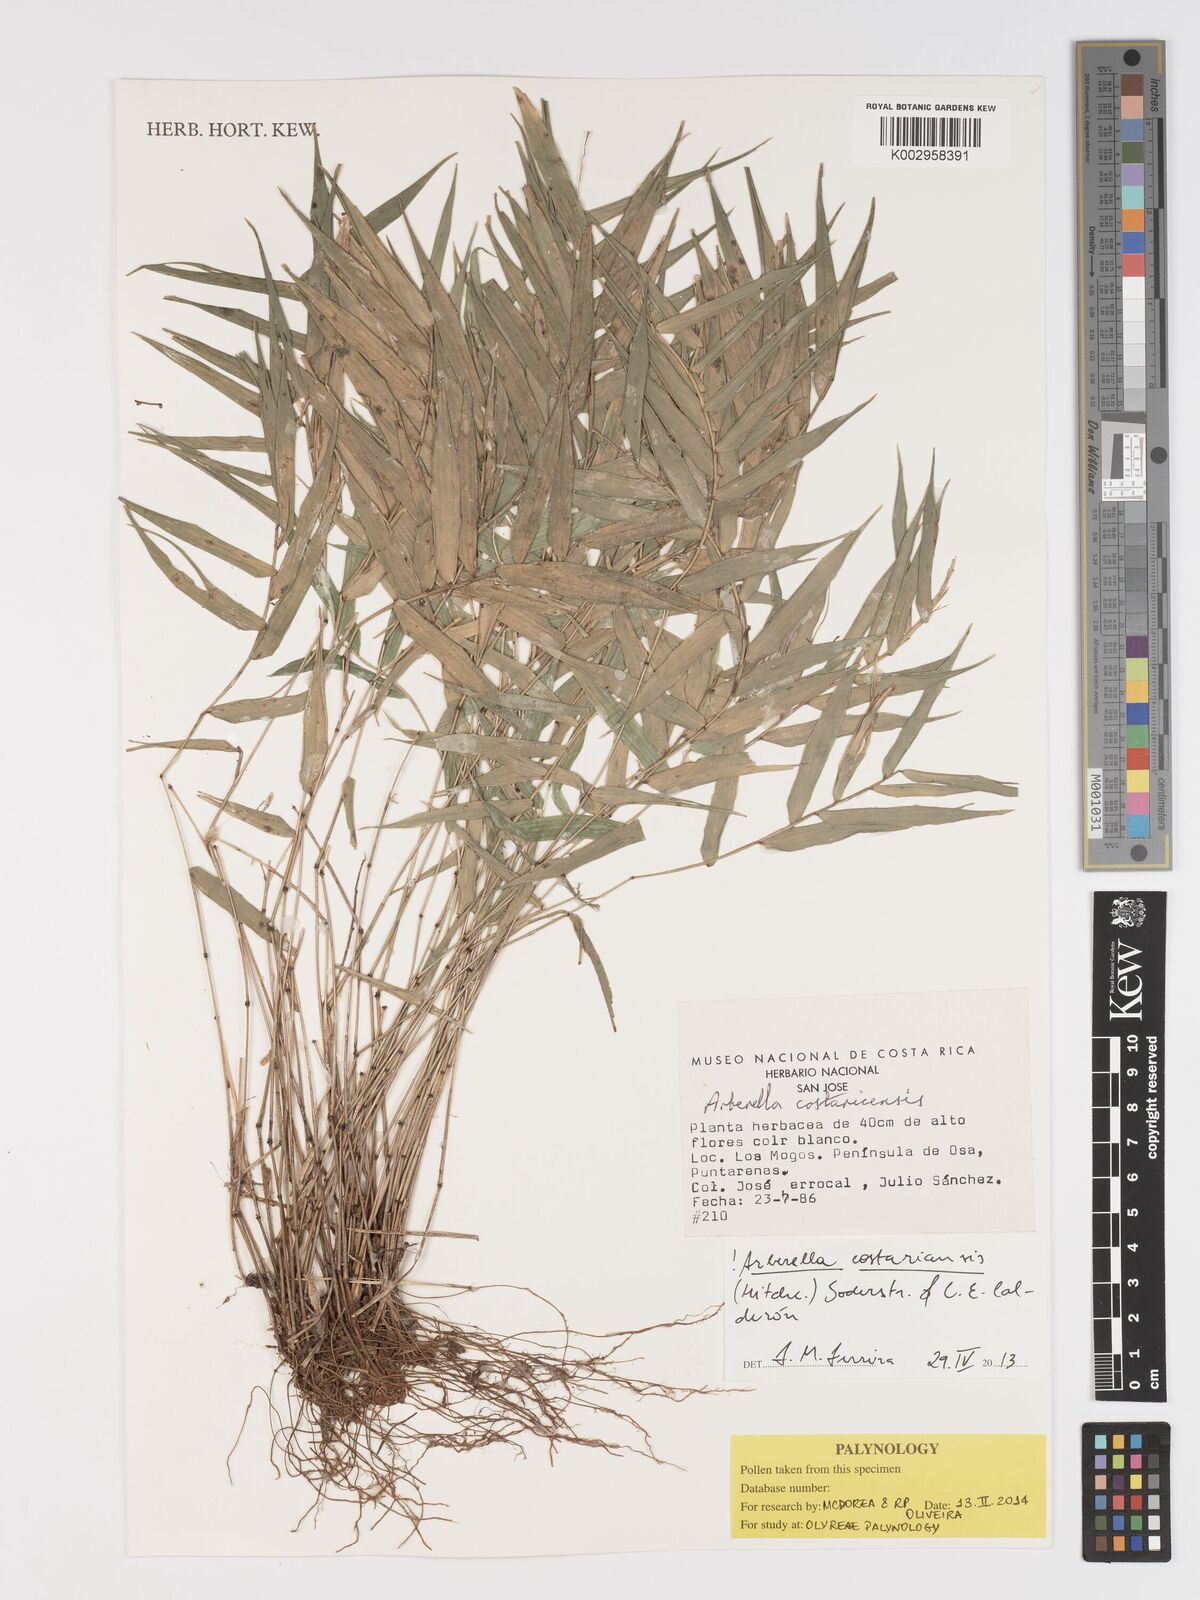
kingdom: Plantae
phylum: Tracheophyta
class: Liliopsida
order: Poales
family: Poaceae
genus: Arberella
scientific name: Arberella costaricensis
